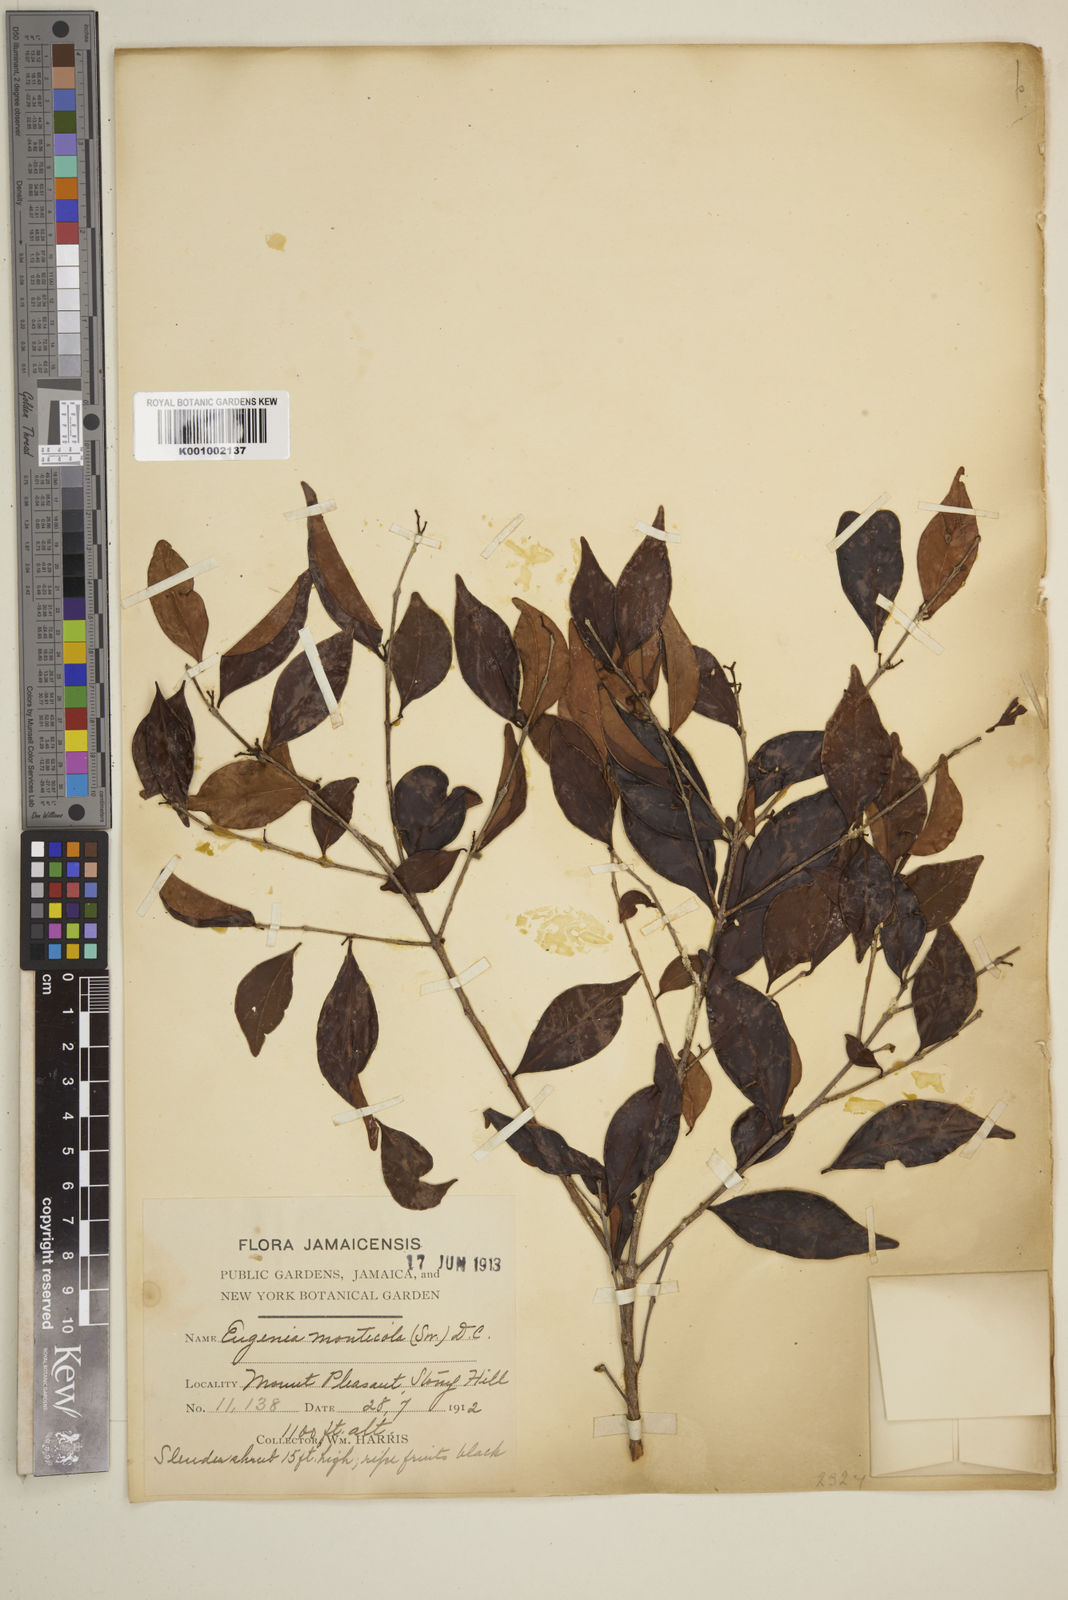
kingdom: Plantae
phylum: Tracheophyta
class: Magnoliopsida
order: Myrtales
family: Myrtaceae
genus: Eugenia
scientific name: Eugenia monticola
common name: Birds berry
